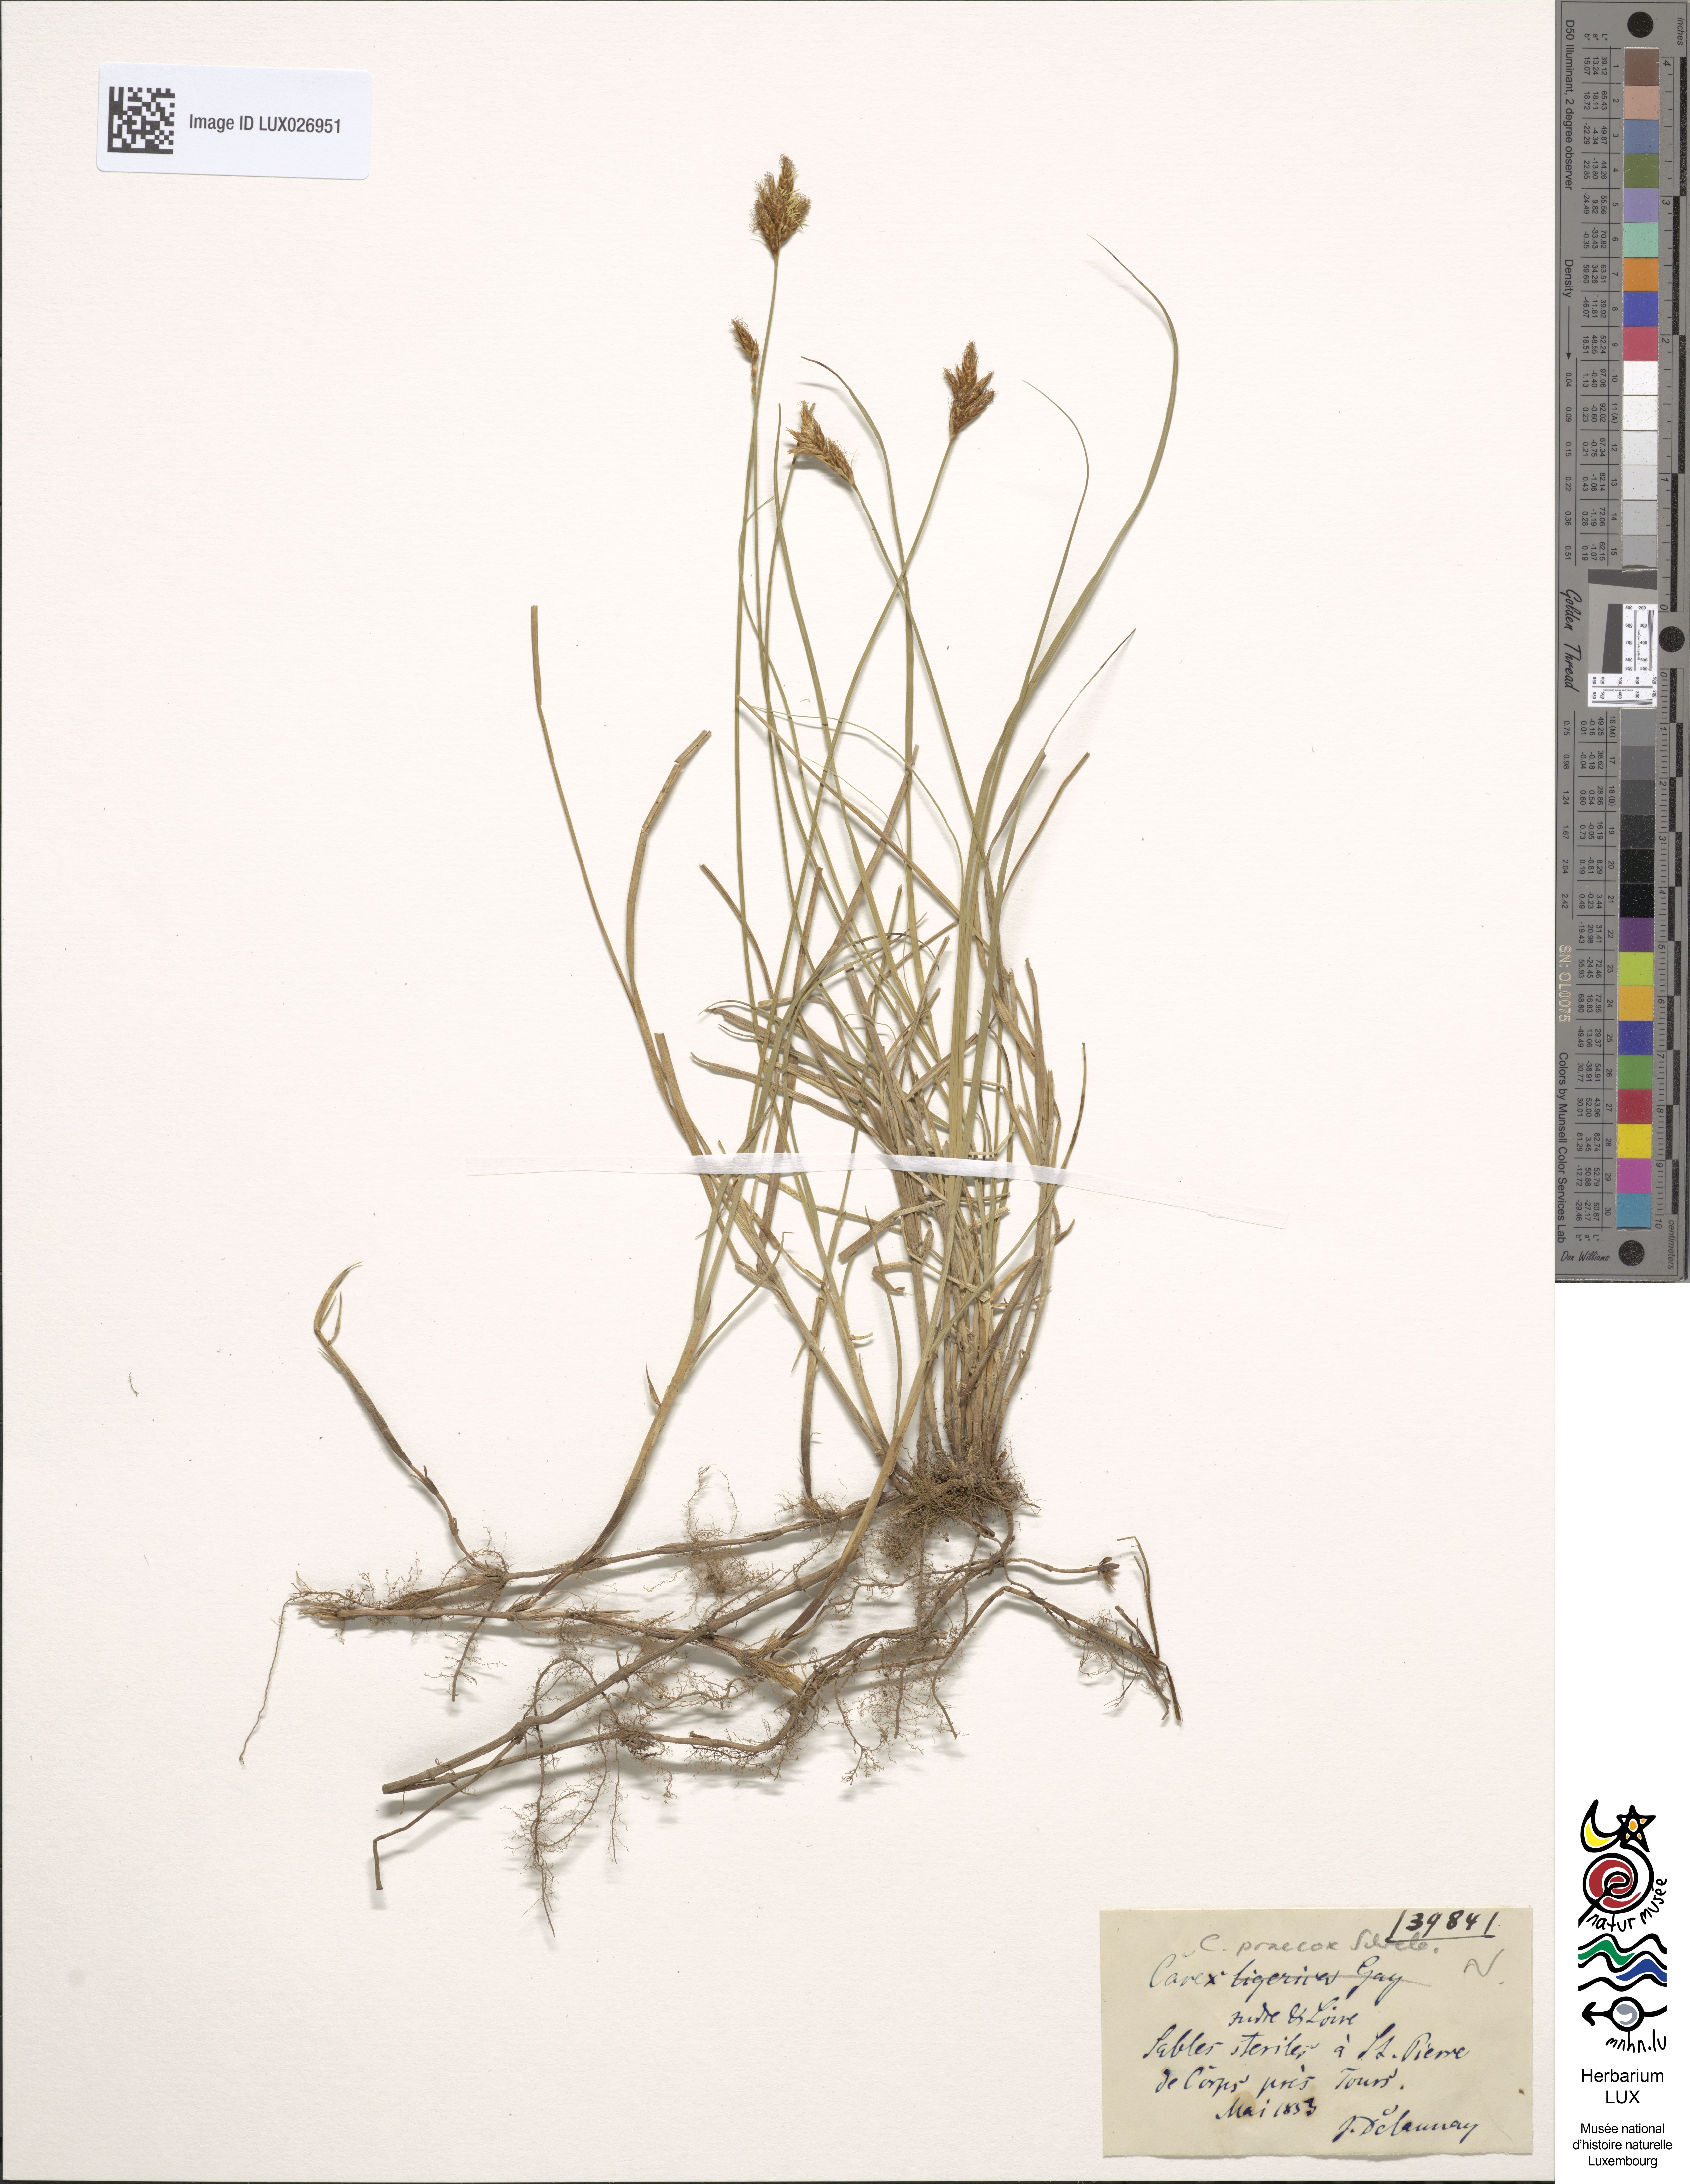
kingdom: Plantae
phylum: Tracheophyta
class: Liliopsida
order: Poales
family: Cyperaceae
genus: Carex
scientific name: Carex colchica
